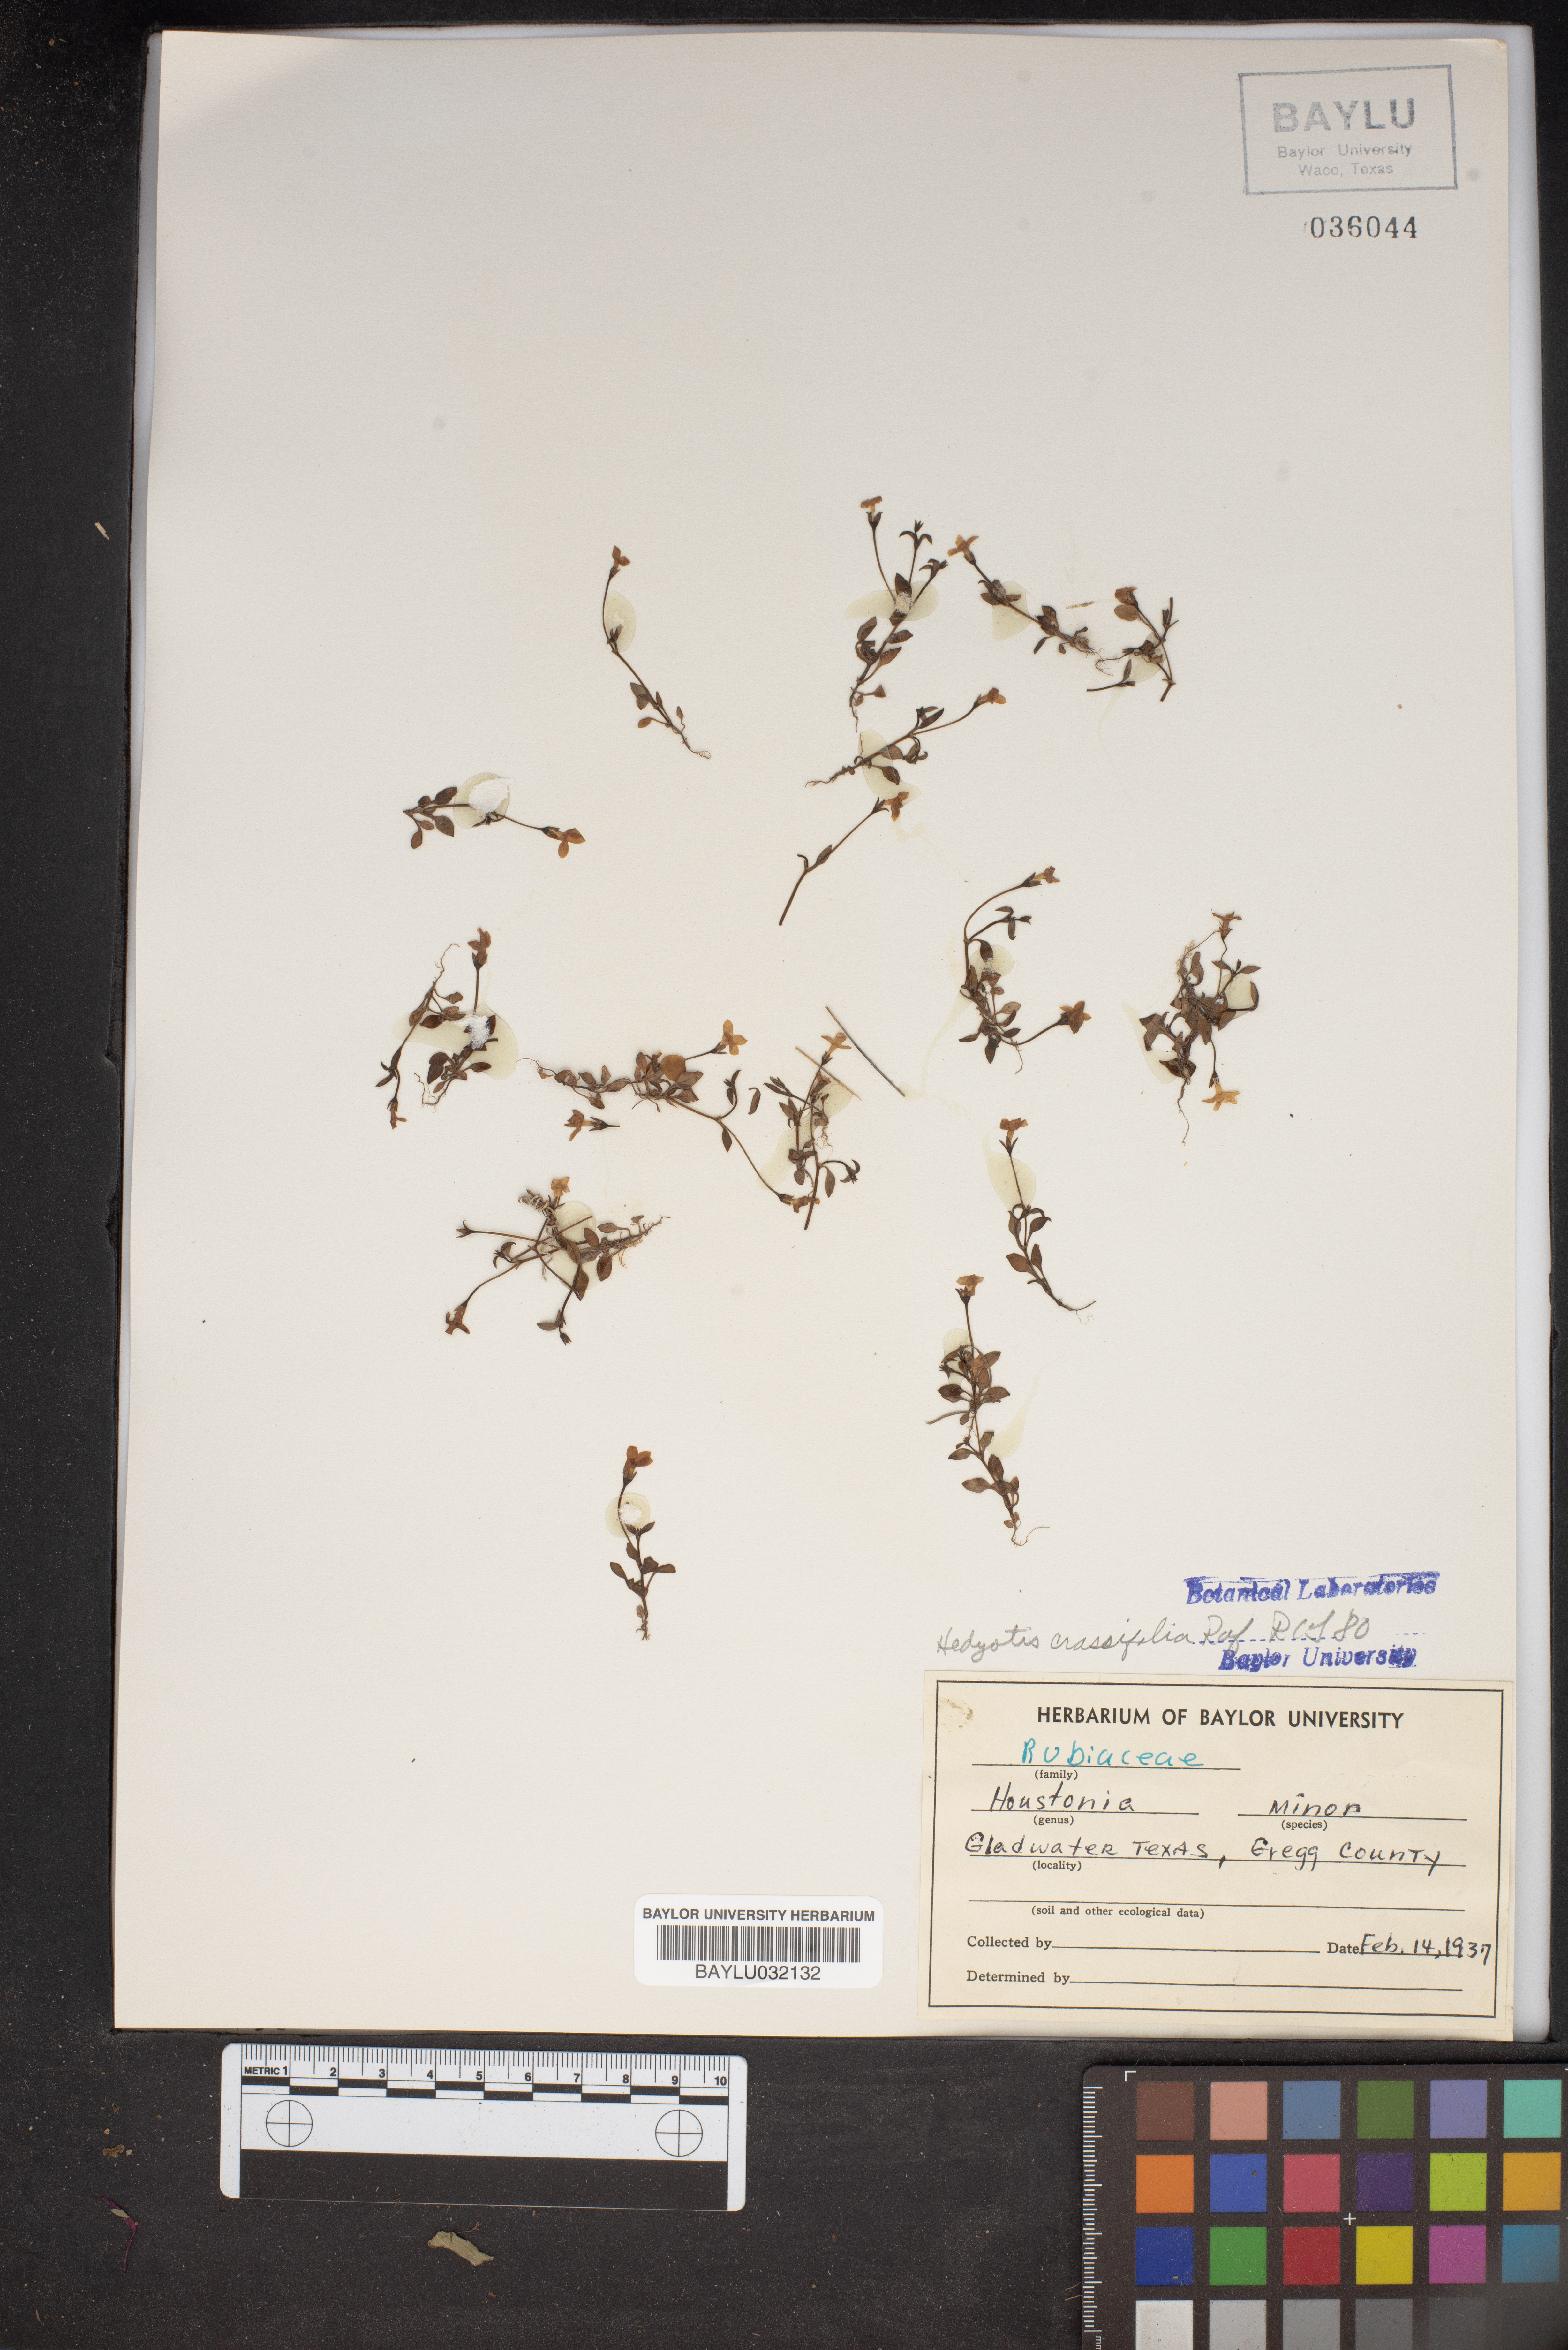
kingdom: Plantae
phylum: Tracheophyta
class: Magnoliopsida
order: Gentianales
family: Rubiaceae
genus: Houstonia
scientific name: Houstonia pusilla
